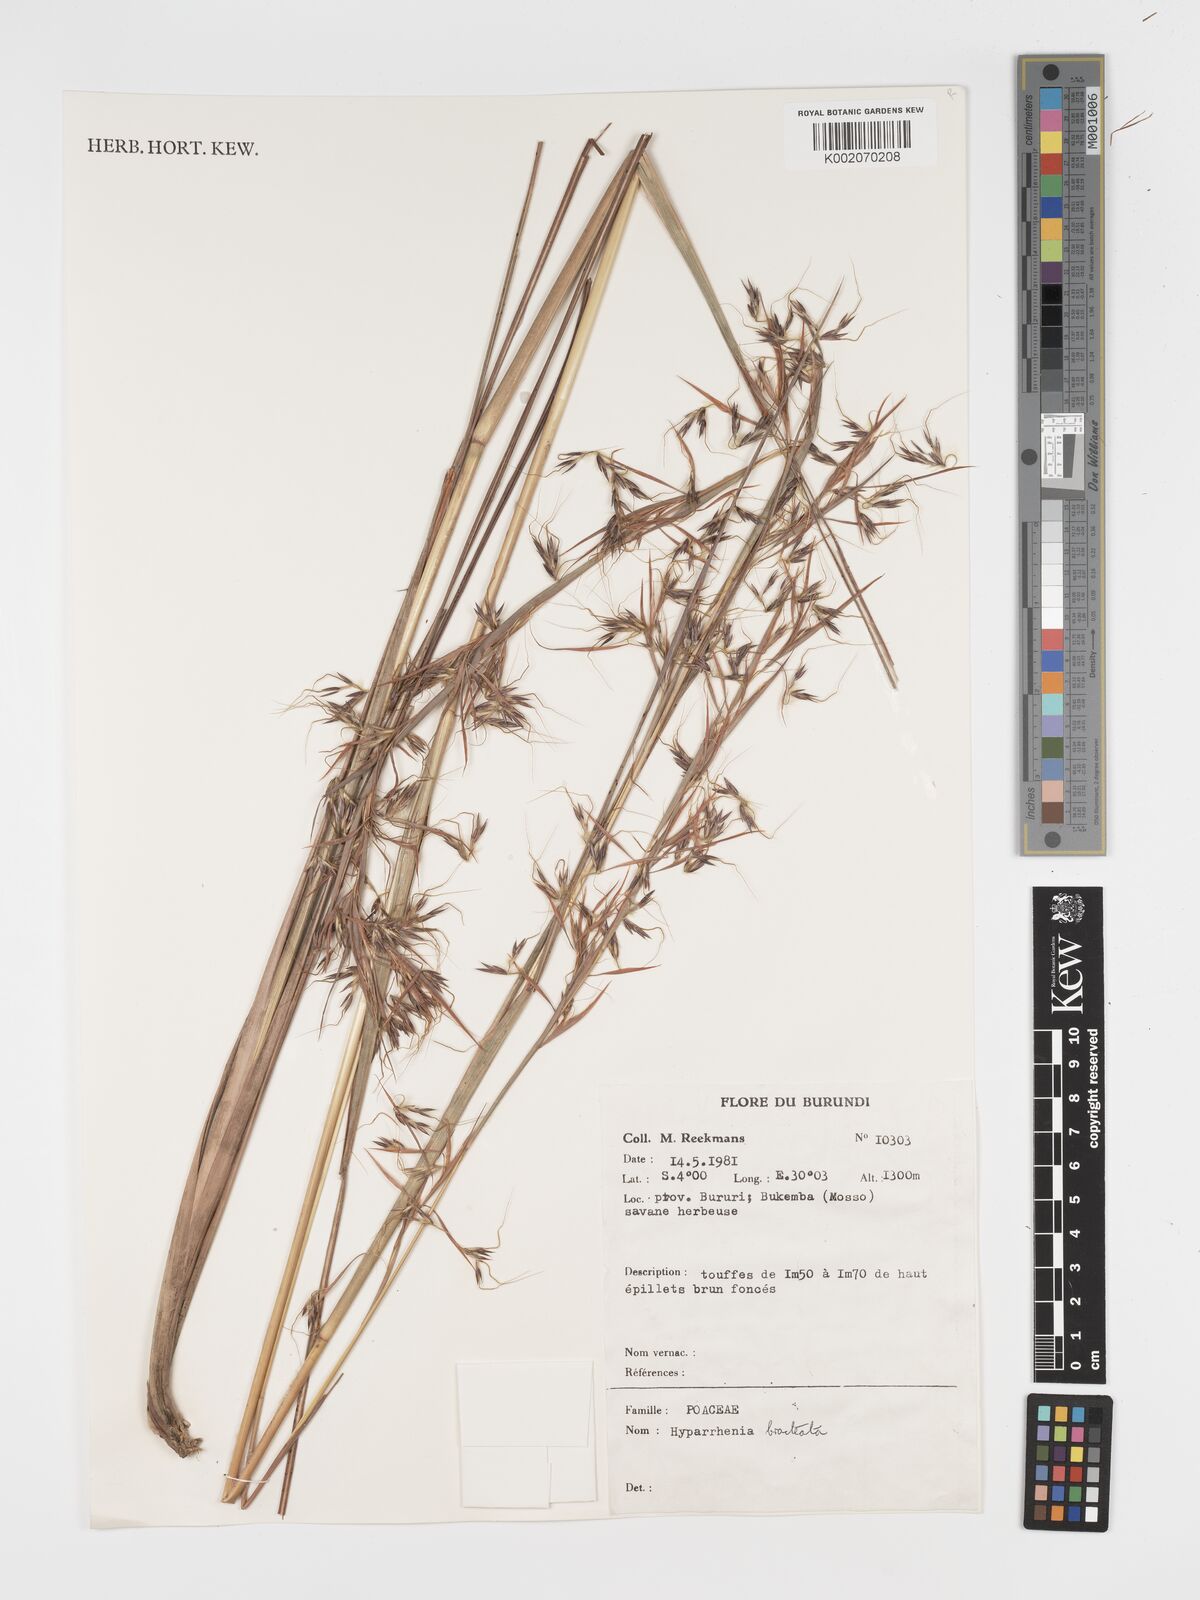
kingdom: Plantae
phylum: Tracheophyta
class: Liliopsida
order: Poales
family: Poaceae
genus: Hyparrhenia
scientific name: Hyparrhenia bracteata
